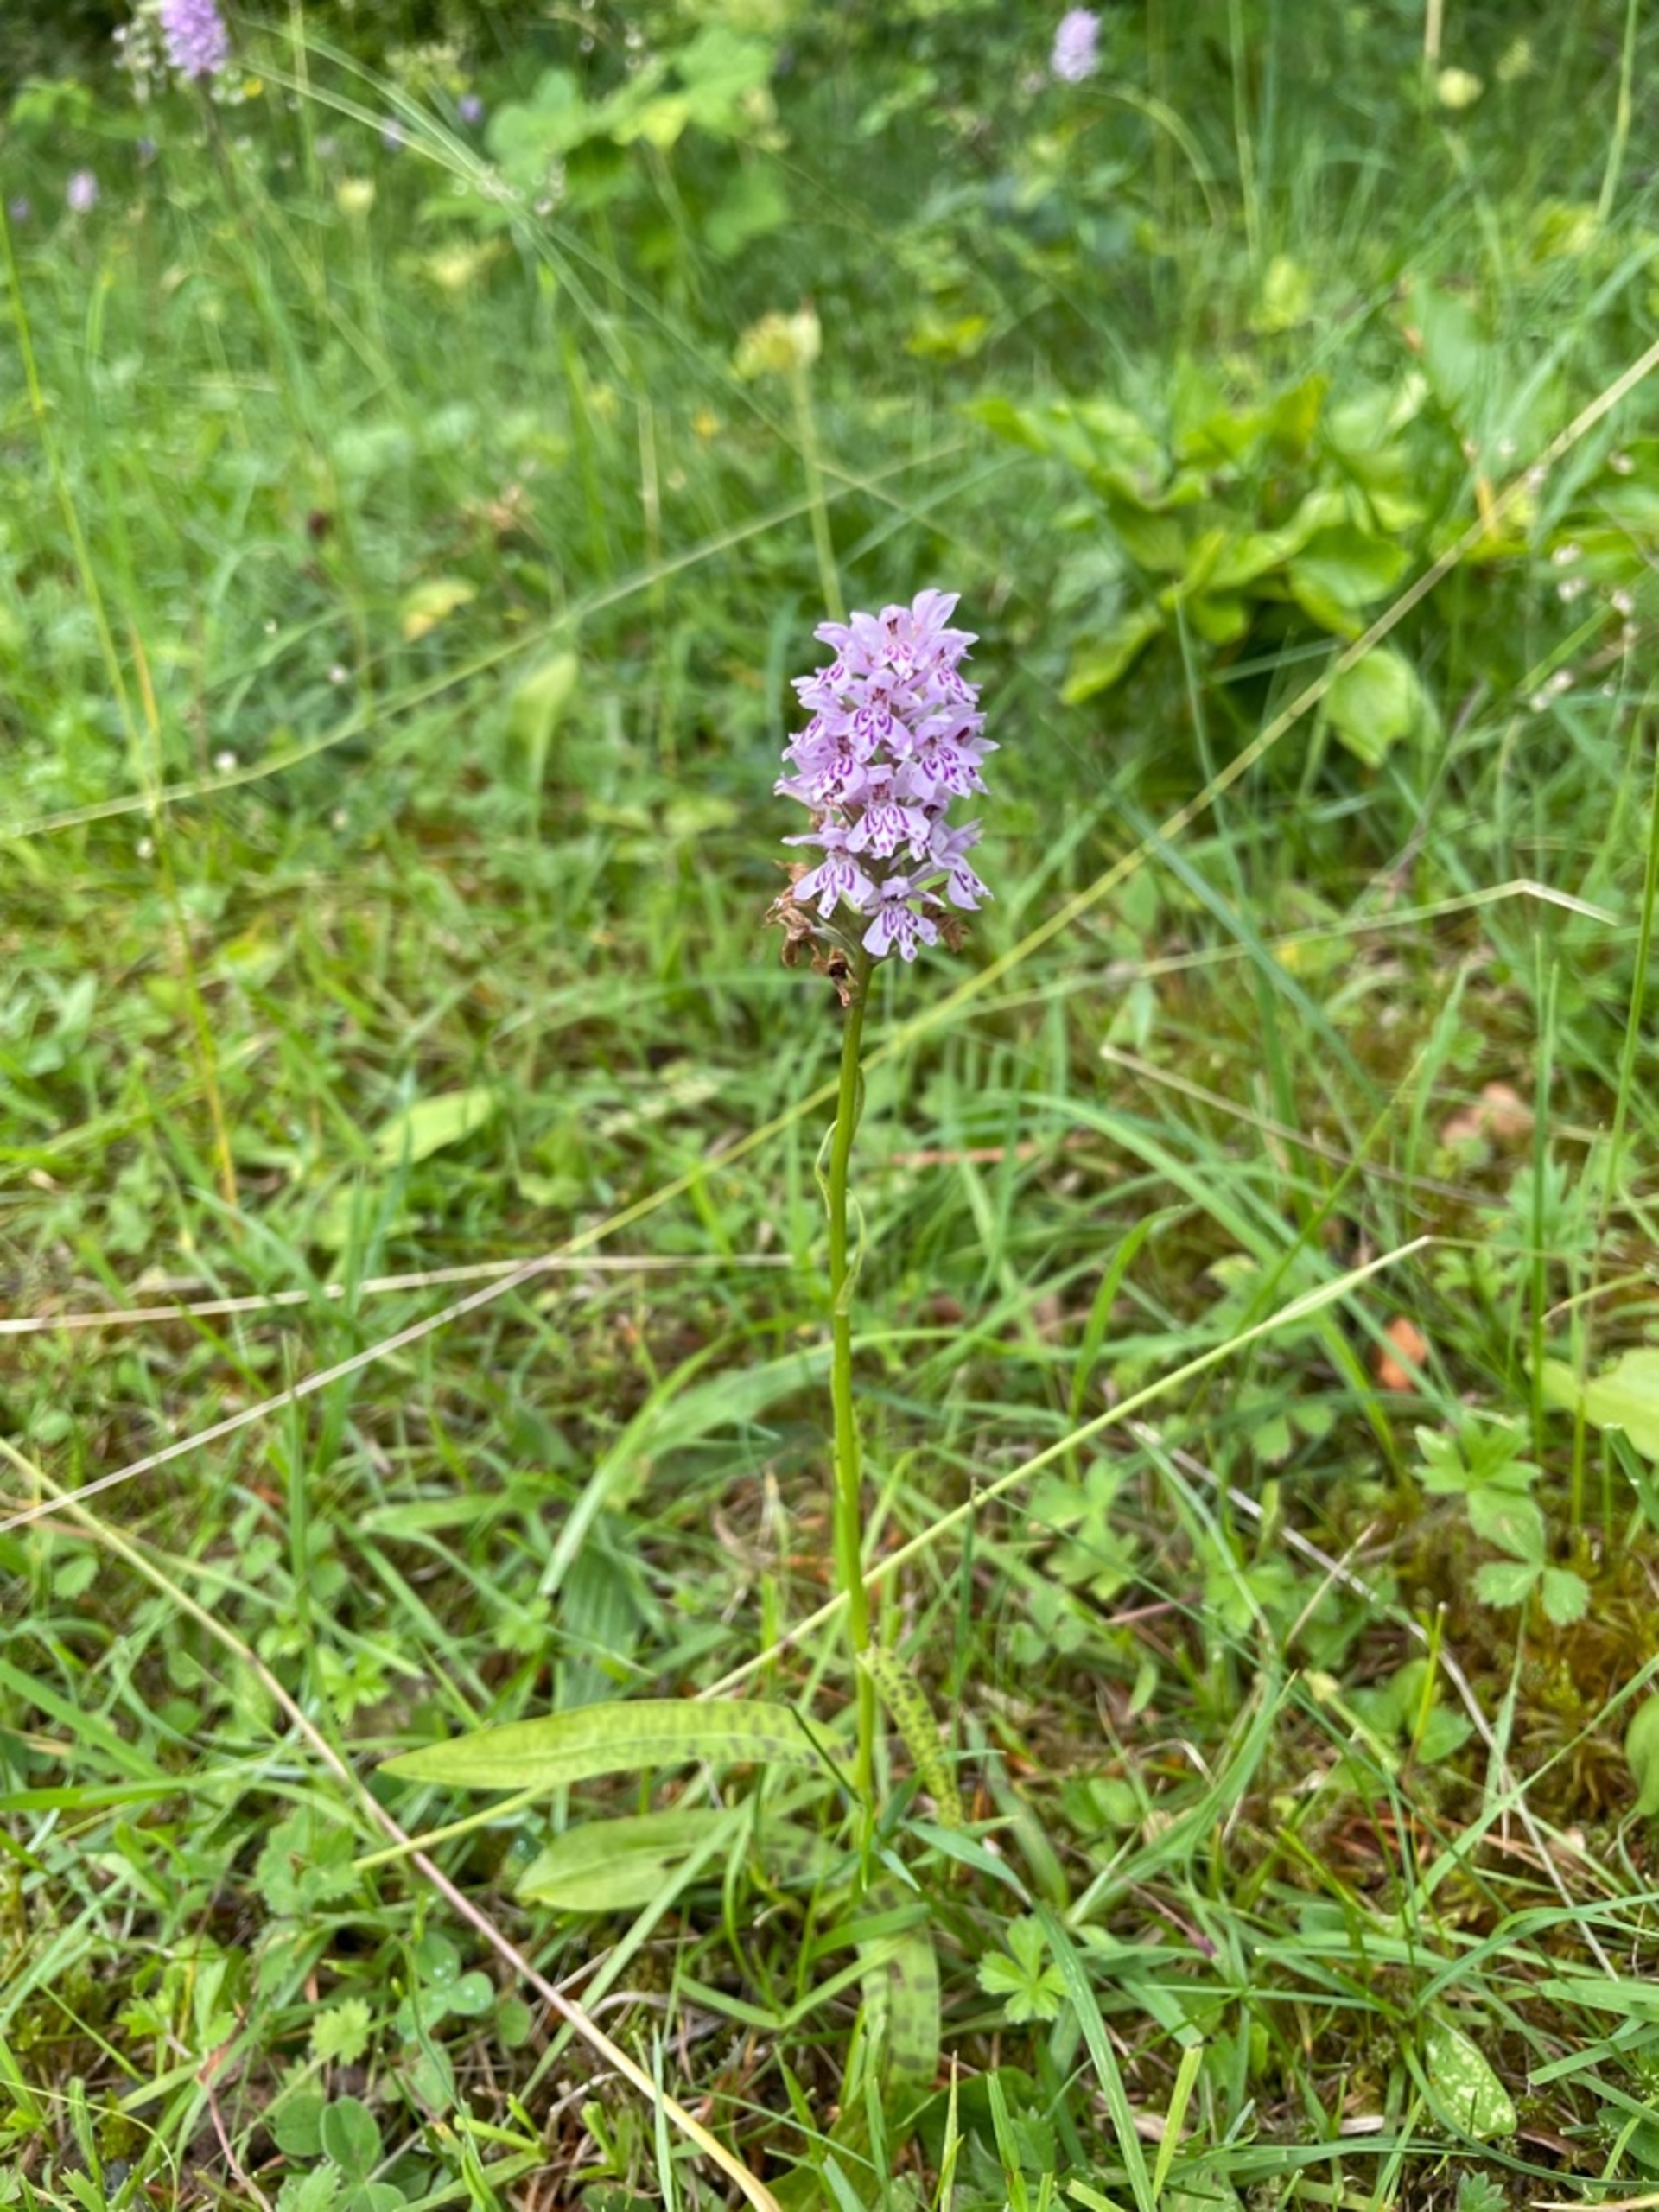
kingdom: Plantae
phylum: Tracheophyta
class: Liliopsida
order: Asparagales
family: Orchidaceae
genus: Dactylorhiza
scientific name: Dactylorhiza maculata
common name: Skov-gøgeurt
